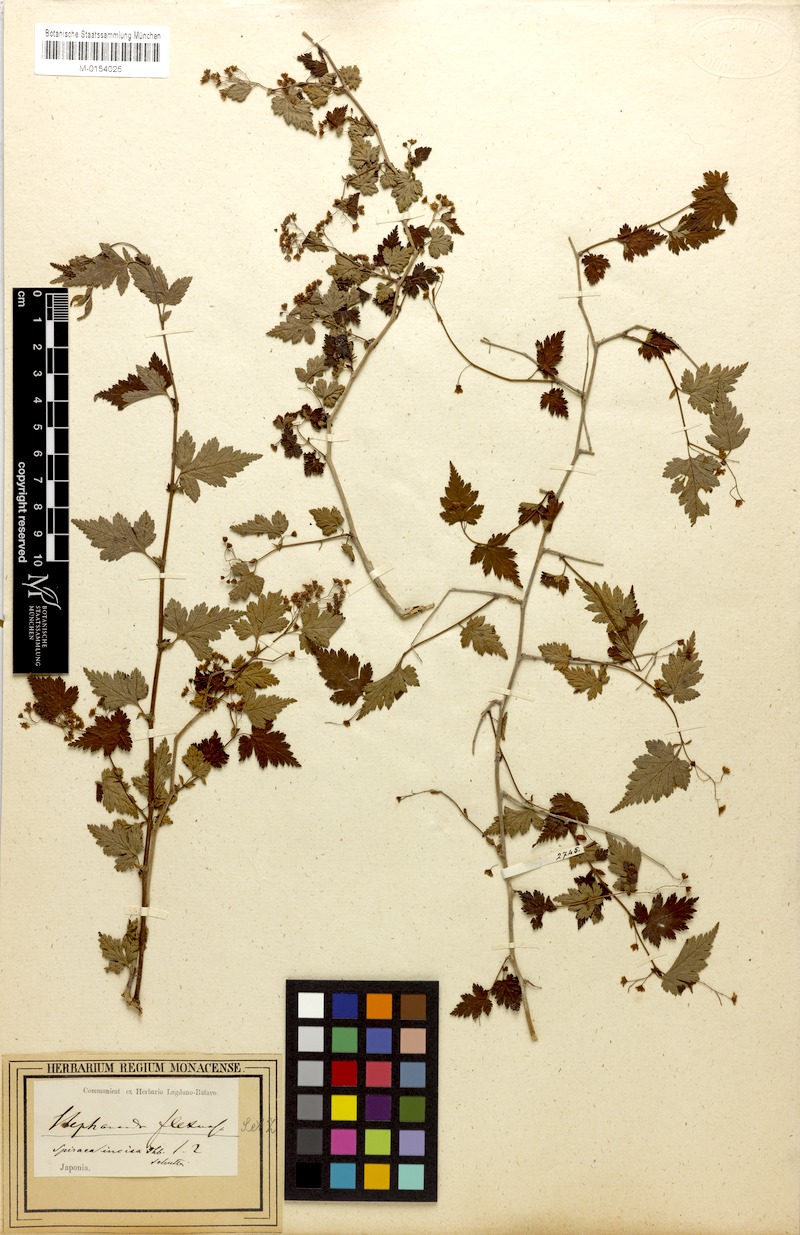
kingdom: Plantae
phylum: Tracheophyta
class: Magnoliopsida
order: Rosales
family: Rosaceae
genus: Neillia
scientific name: Neillia incisa
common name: Laceshrub
